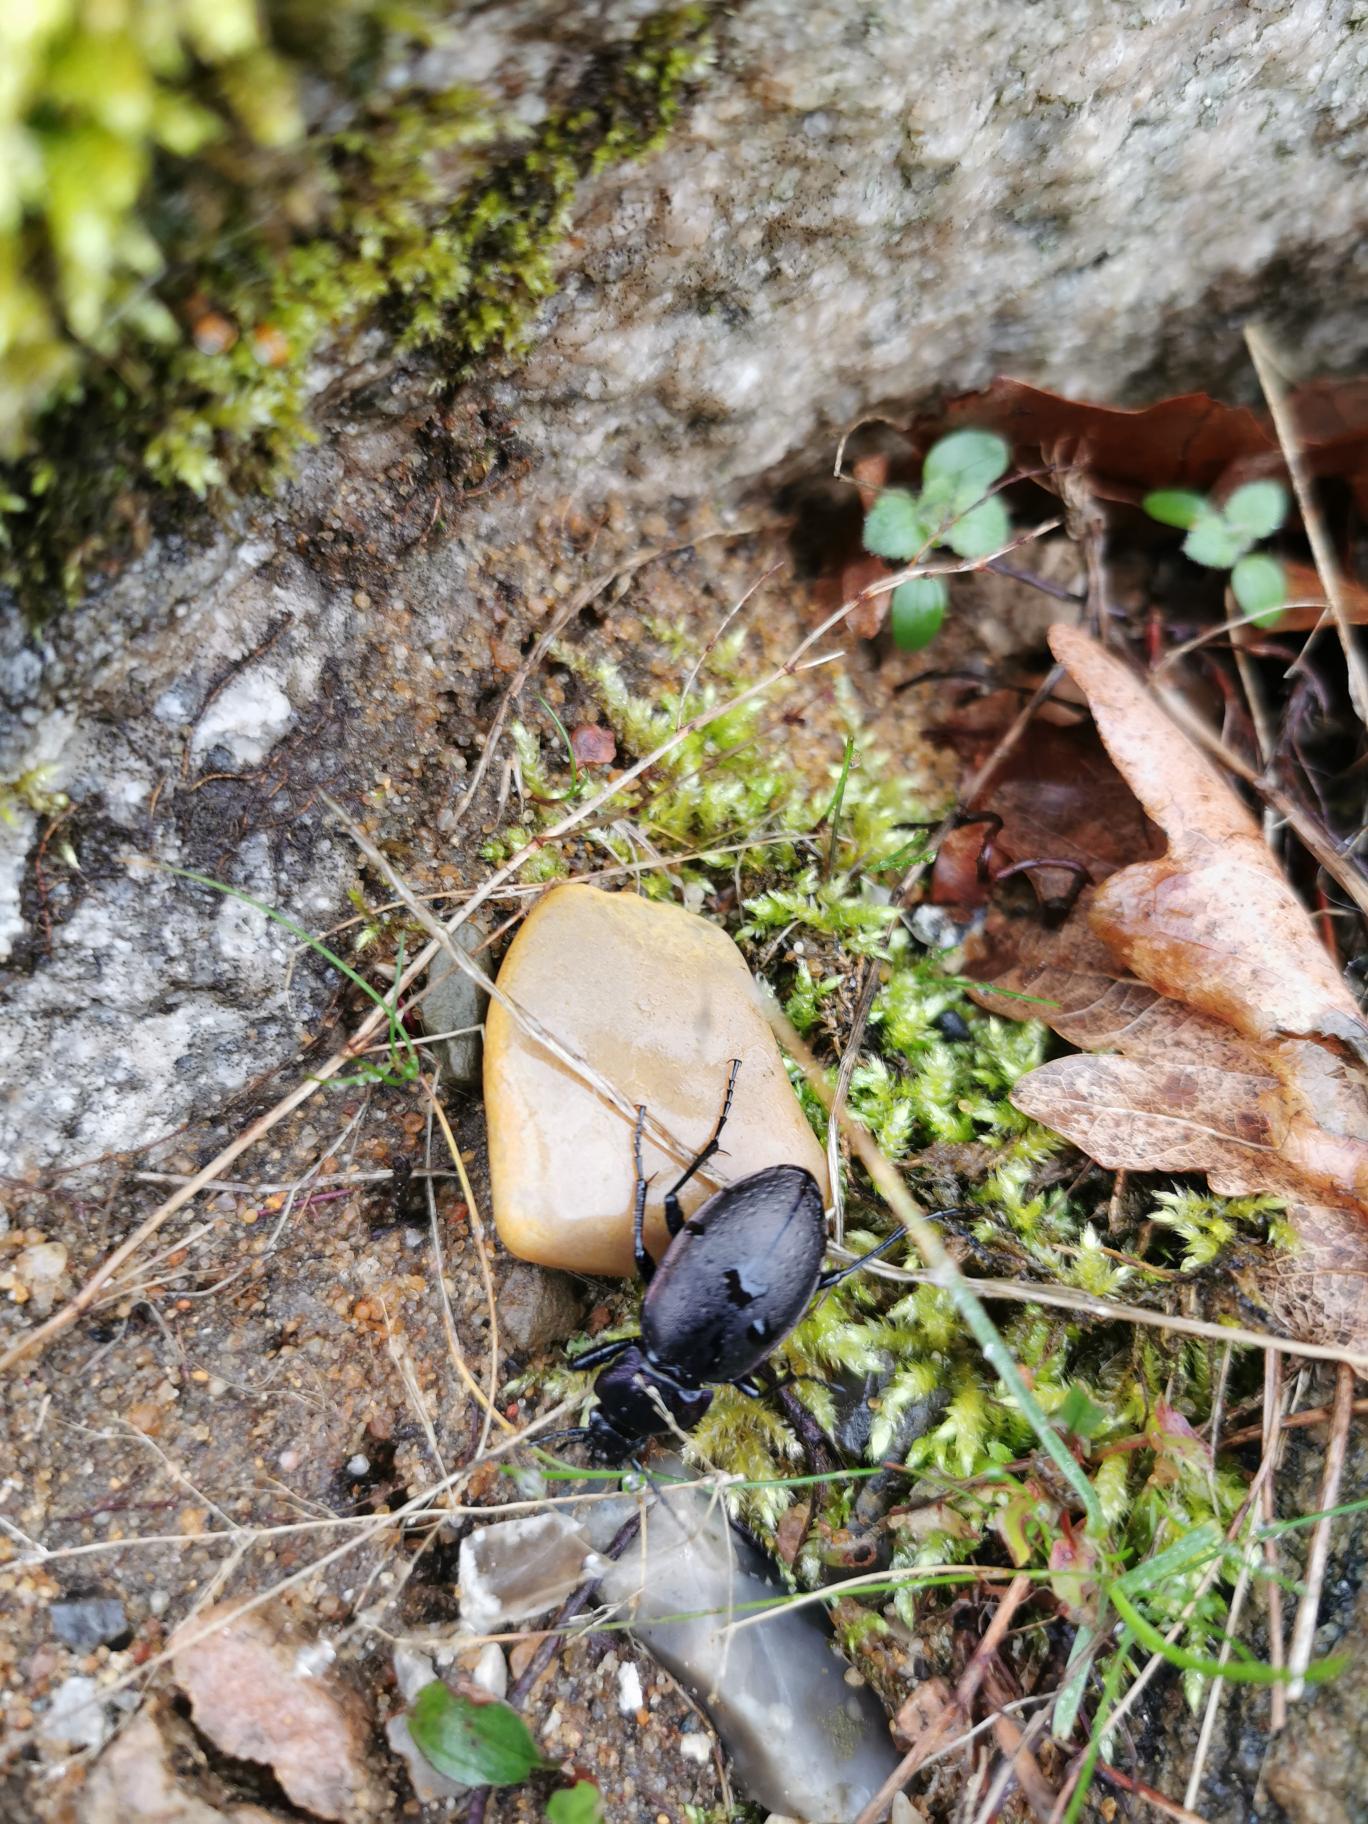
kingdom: Animalia
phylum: Arthropoda
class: Insecta
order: Coleoptera
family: Carabidae
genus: Carabus
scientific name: Carabus nemoralis
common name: Kratløber
